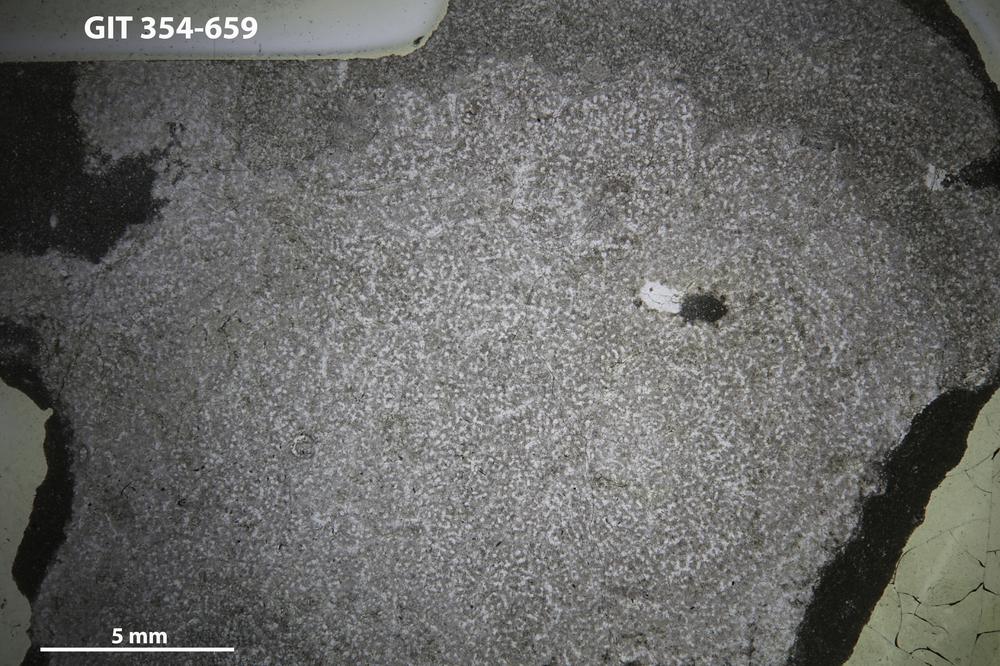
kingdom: Animalia
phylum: Porifera
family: Pseudolabechiidae
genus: Vikingia
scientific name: Vikingia
